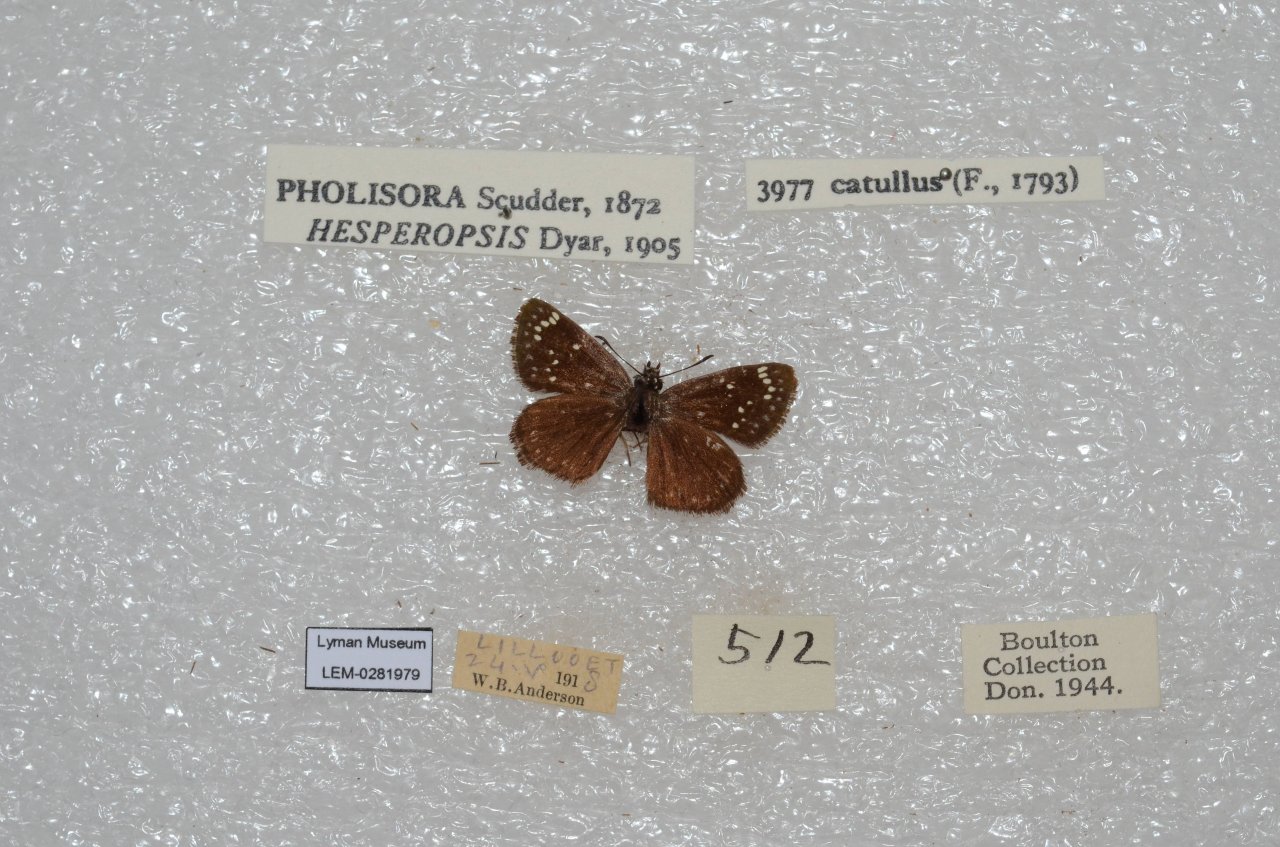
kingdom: Animalia
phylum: Arthropoda
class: Insecta
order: Lepidoptera
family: Hesperiidae
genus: Pholisora
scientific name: Pholisora catullus
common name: Common Sootywing
